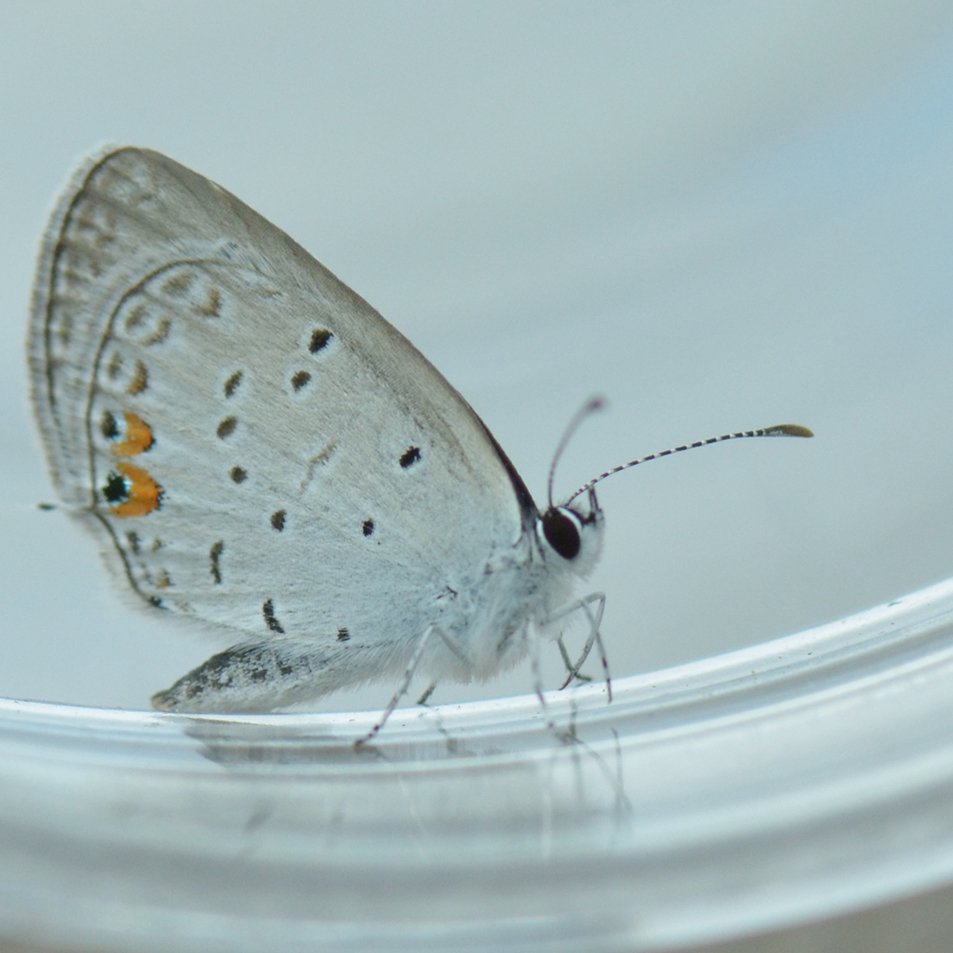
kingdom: Animalia
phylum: Arthropoda
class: Insecta
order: Lepidoptera
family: Lycaenidae
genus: Elkalyce
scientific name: Elkalyce comyntas
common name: Eastern Tailed-Blue
